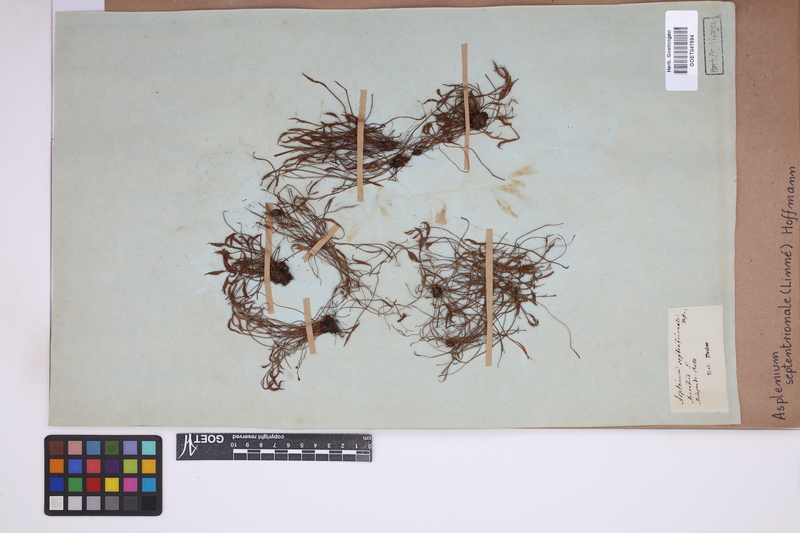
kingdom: Plantae
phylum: Tracheophyta
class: Polypodiopsida
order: Polypodiales
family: Aspleniaceae
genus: Asplenium
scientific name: Asplenium septentrionale
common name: Forked spleenwort
